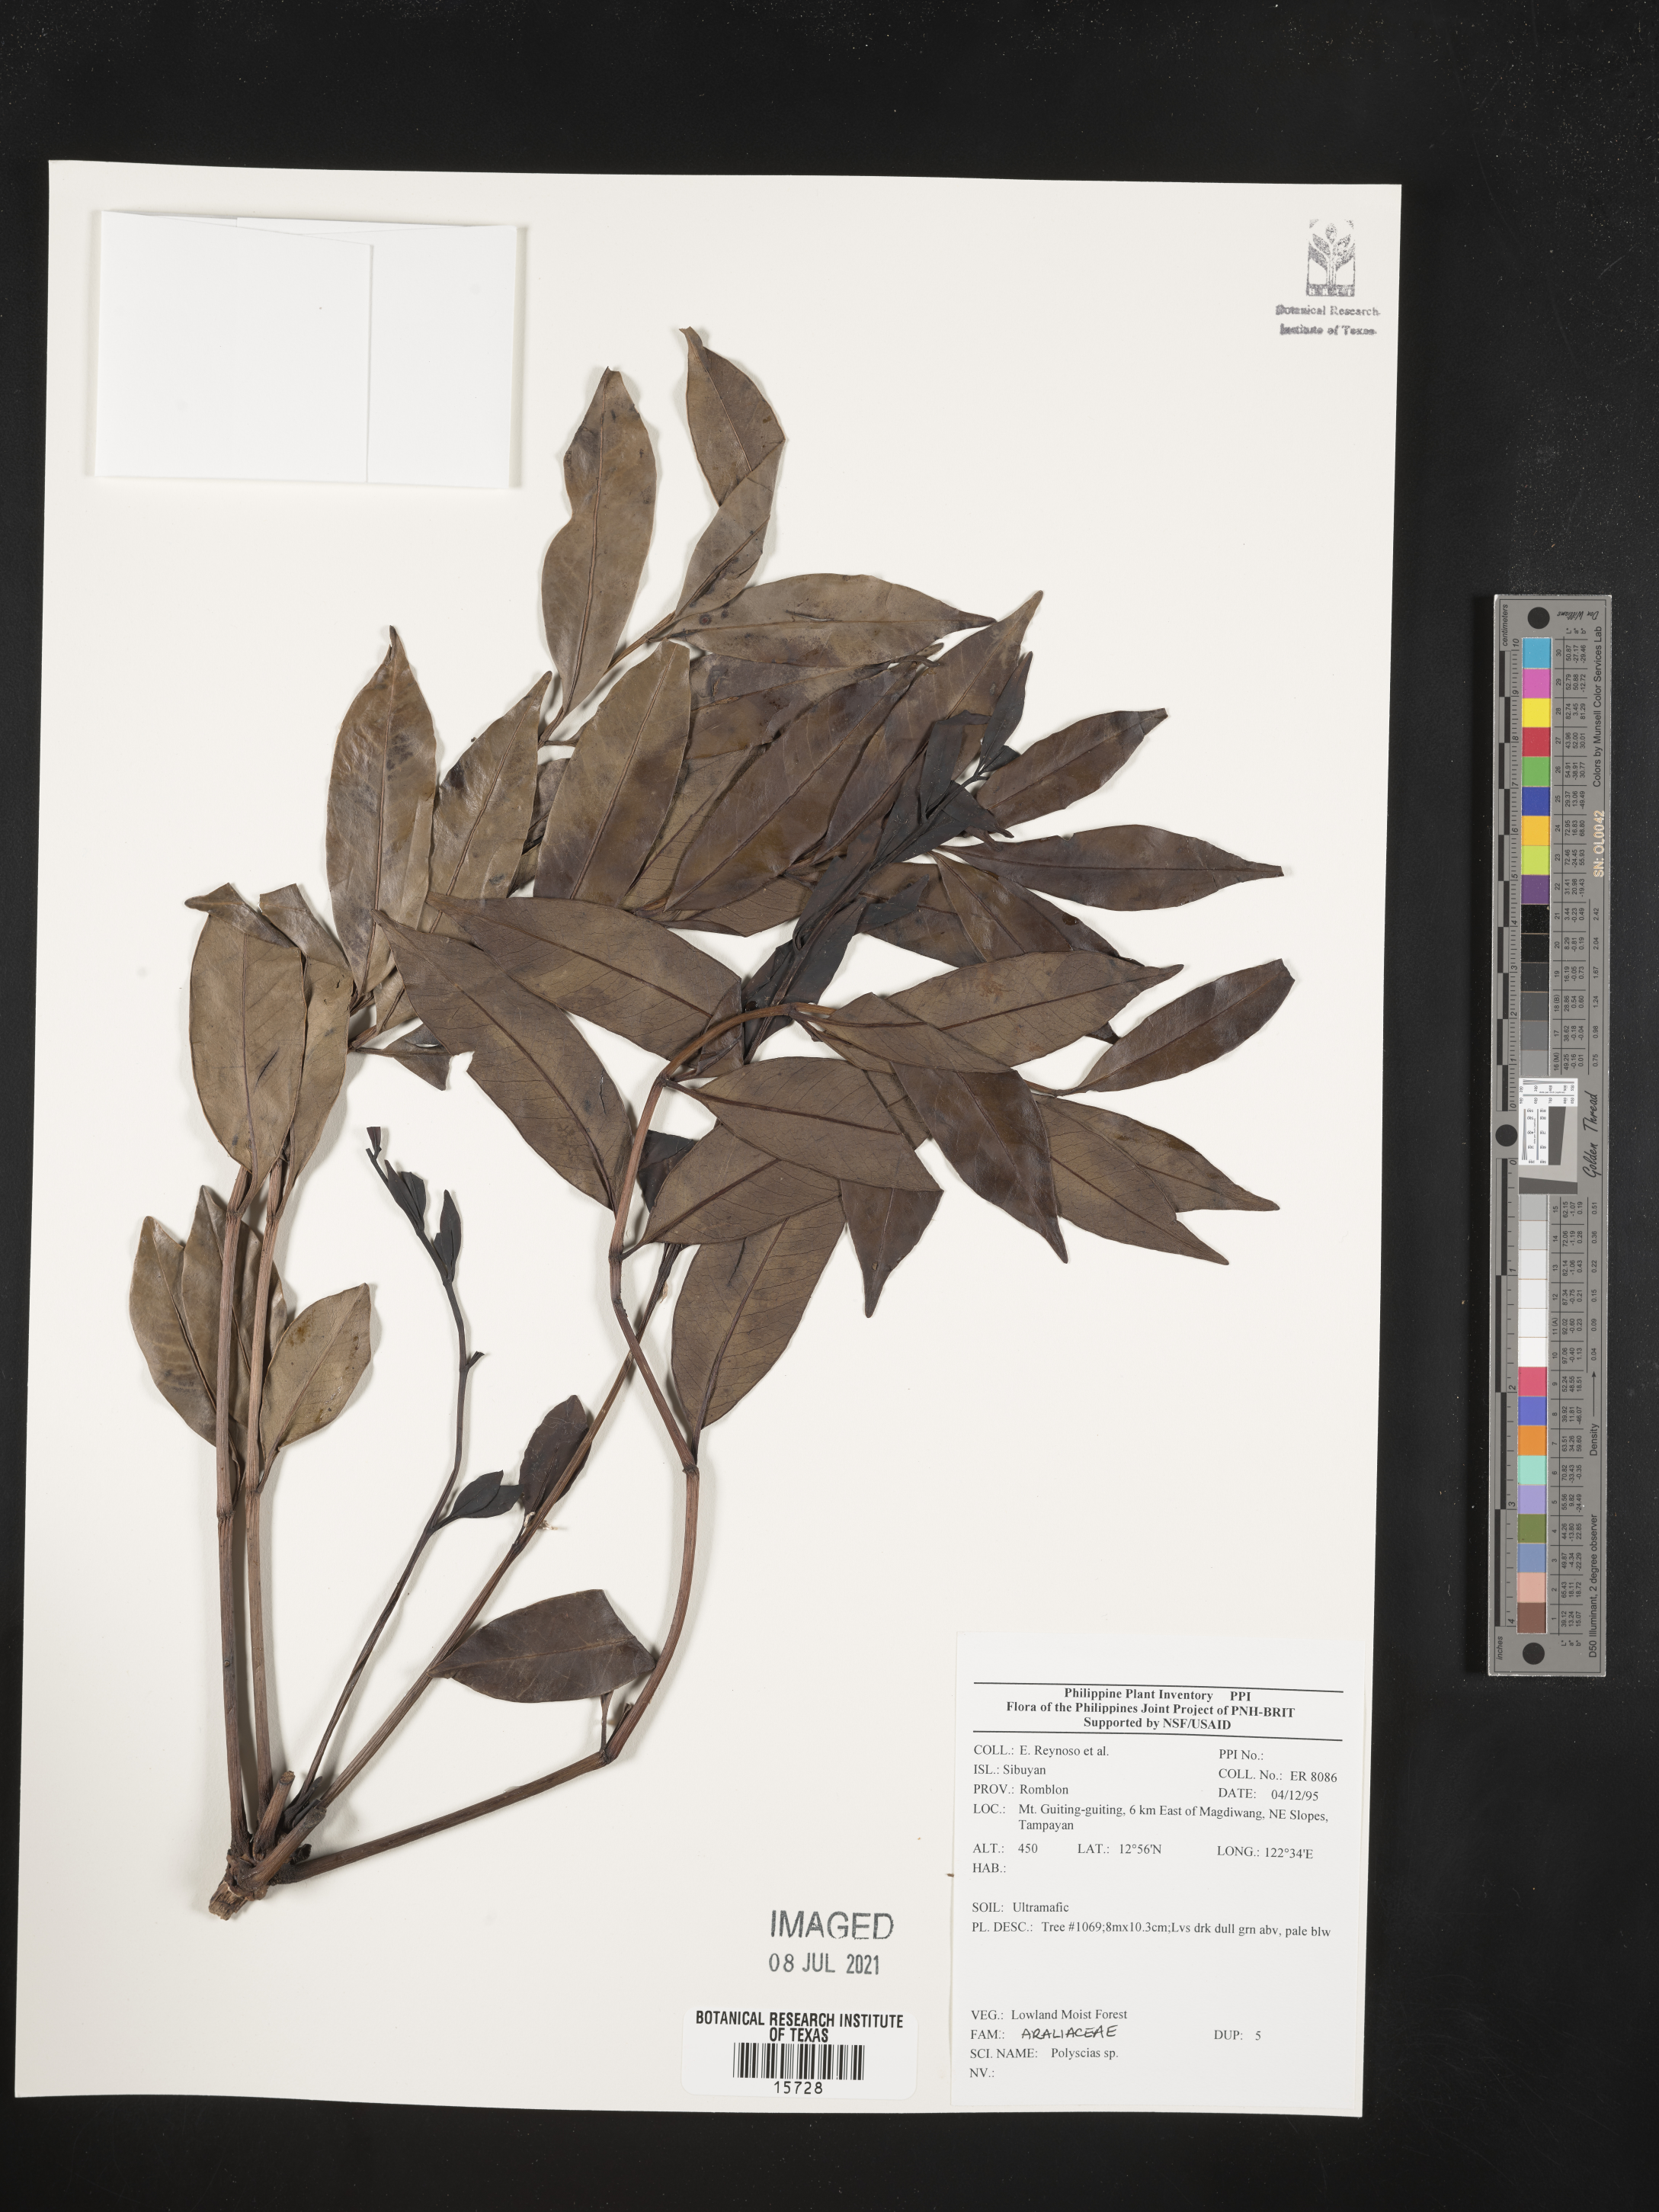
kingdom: Plantae
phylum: Tracheophyta
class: Magnoliopsida
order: Apiales
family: Araliaceae
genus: Polyscias
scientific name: Polyscias
